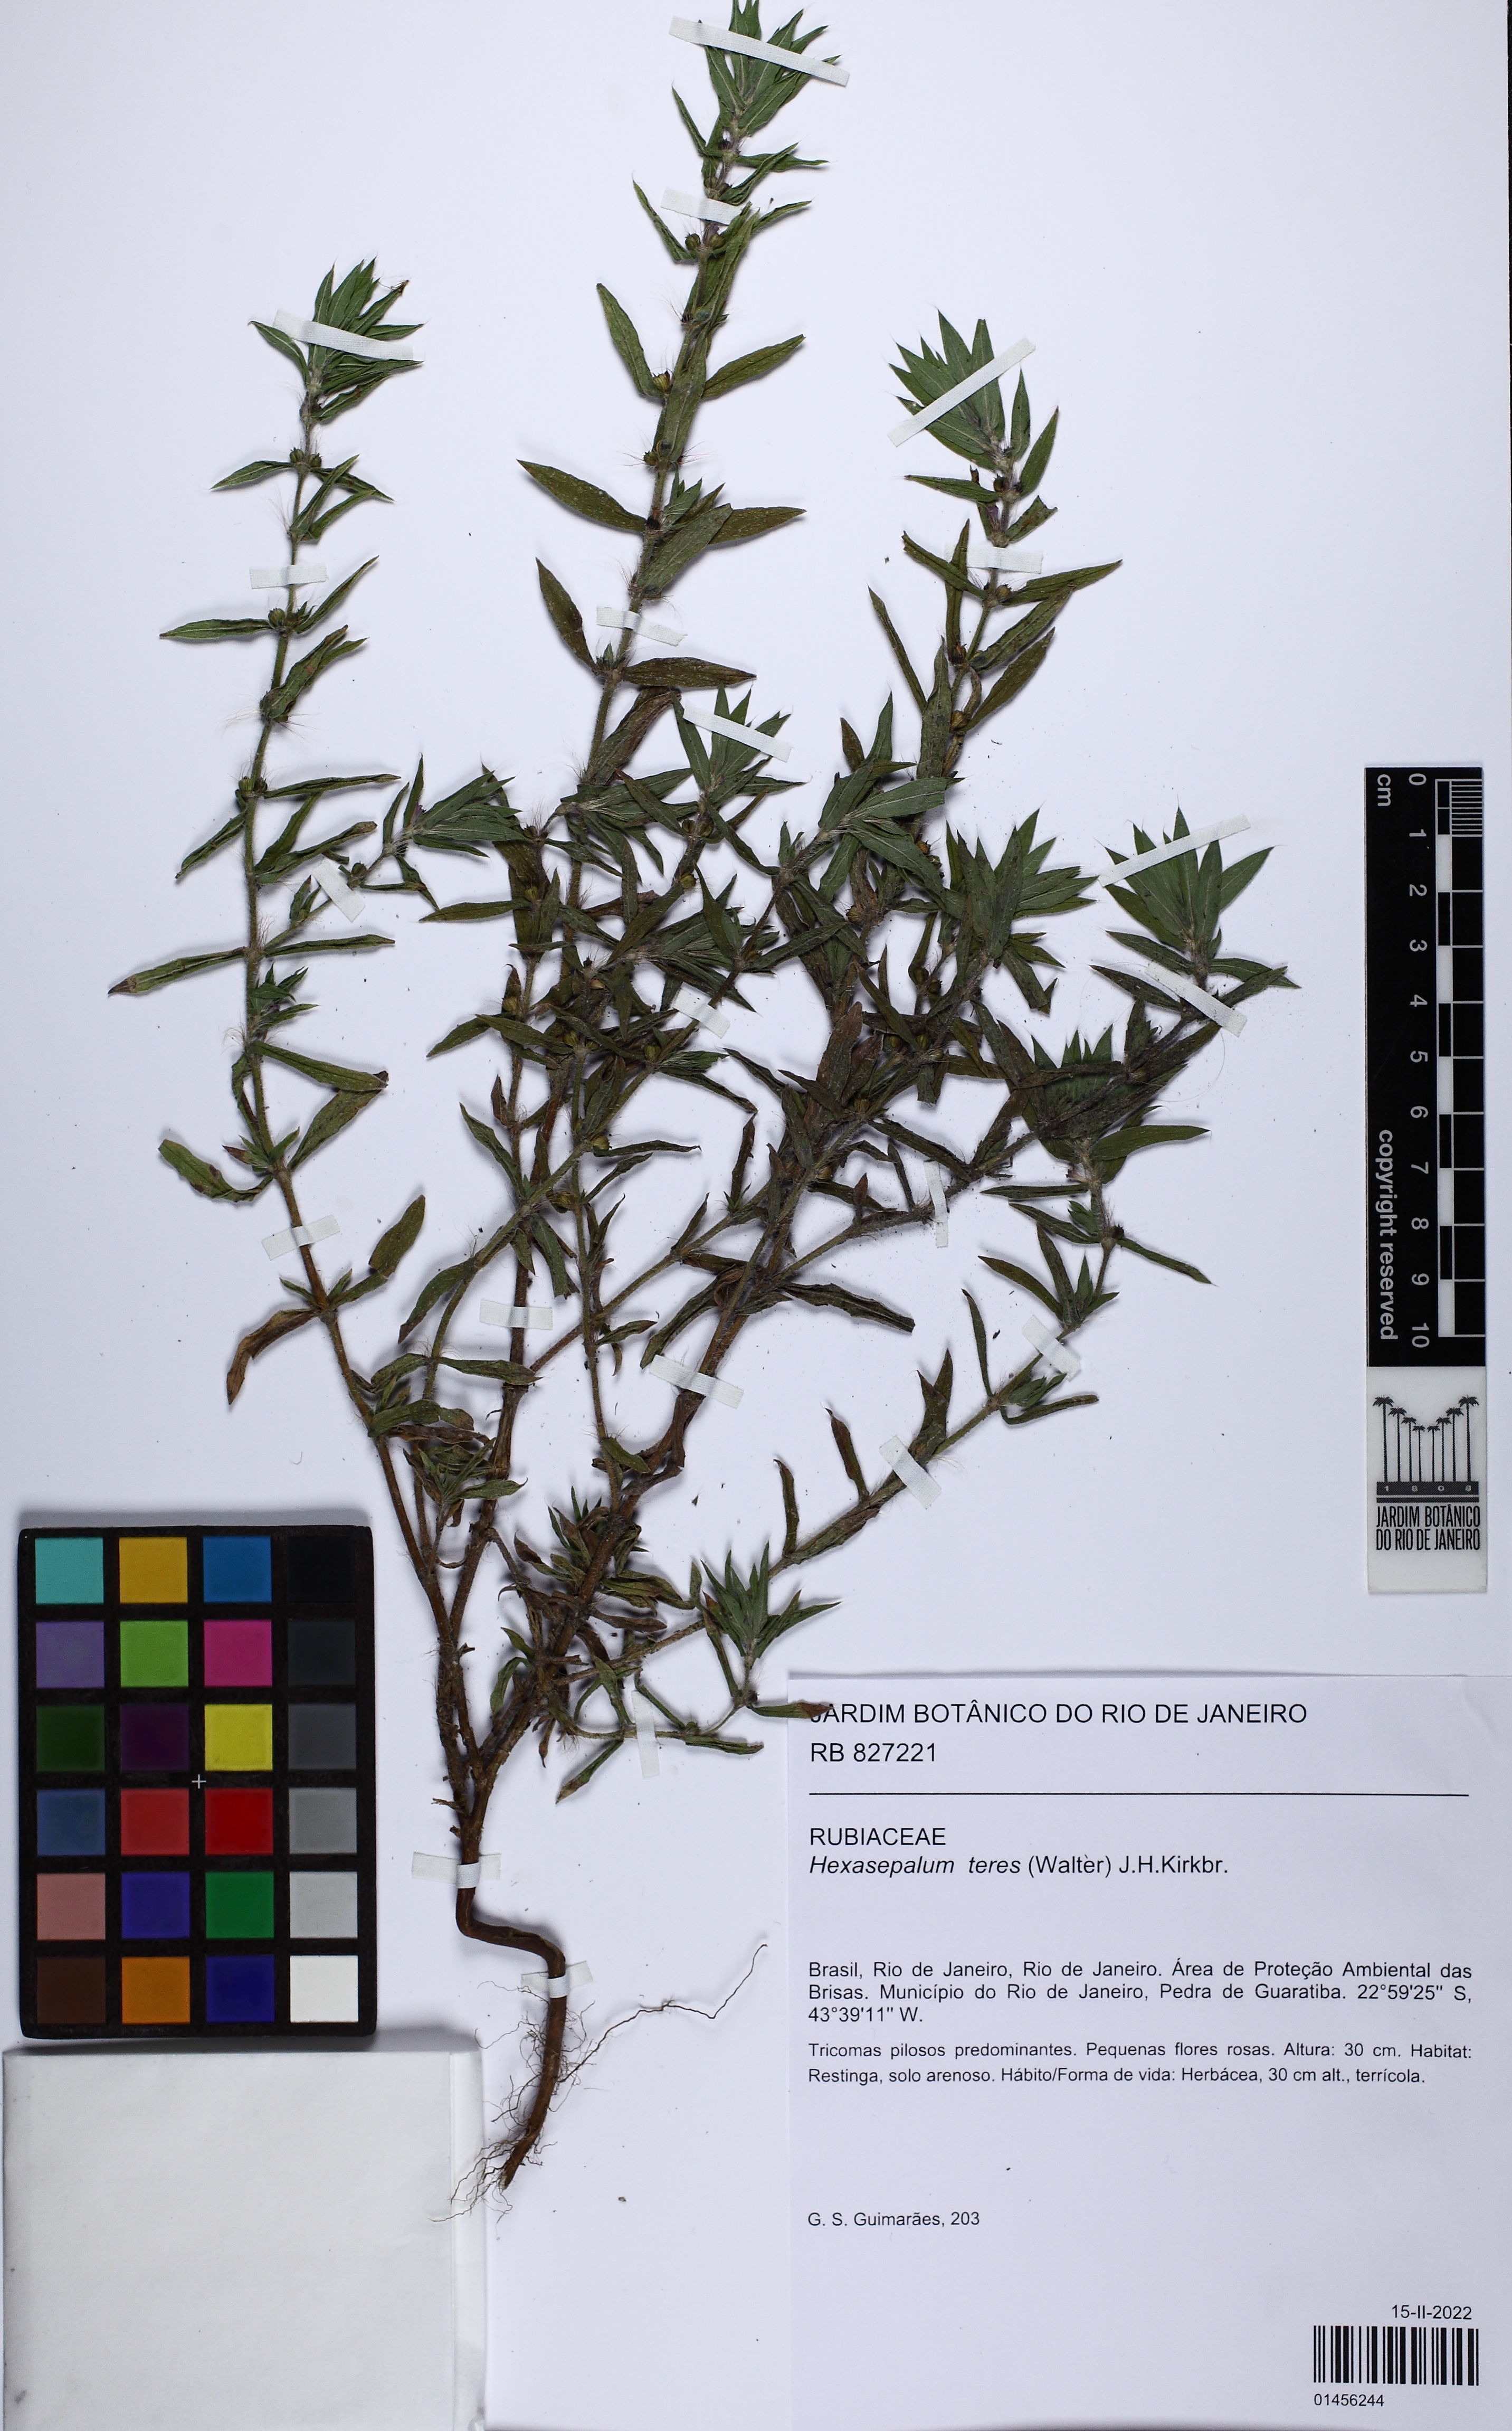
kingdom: Plantae
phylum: Tracheophyta
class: Magnoliopsida
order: Gentianales
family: Rubiaceae
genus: Hexasepalum
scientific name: Hexasepalum teres
